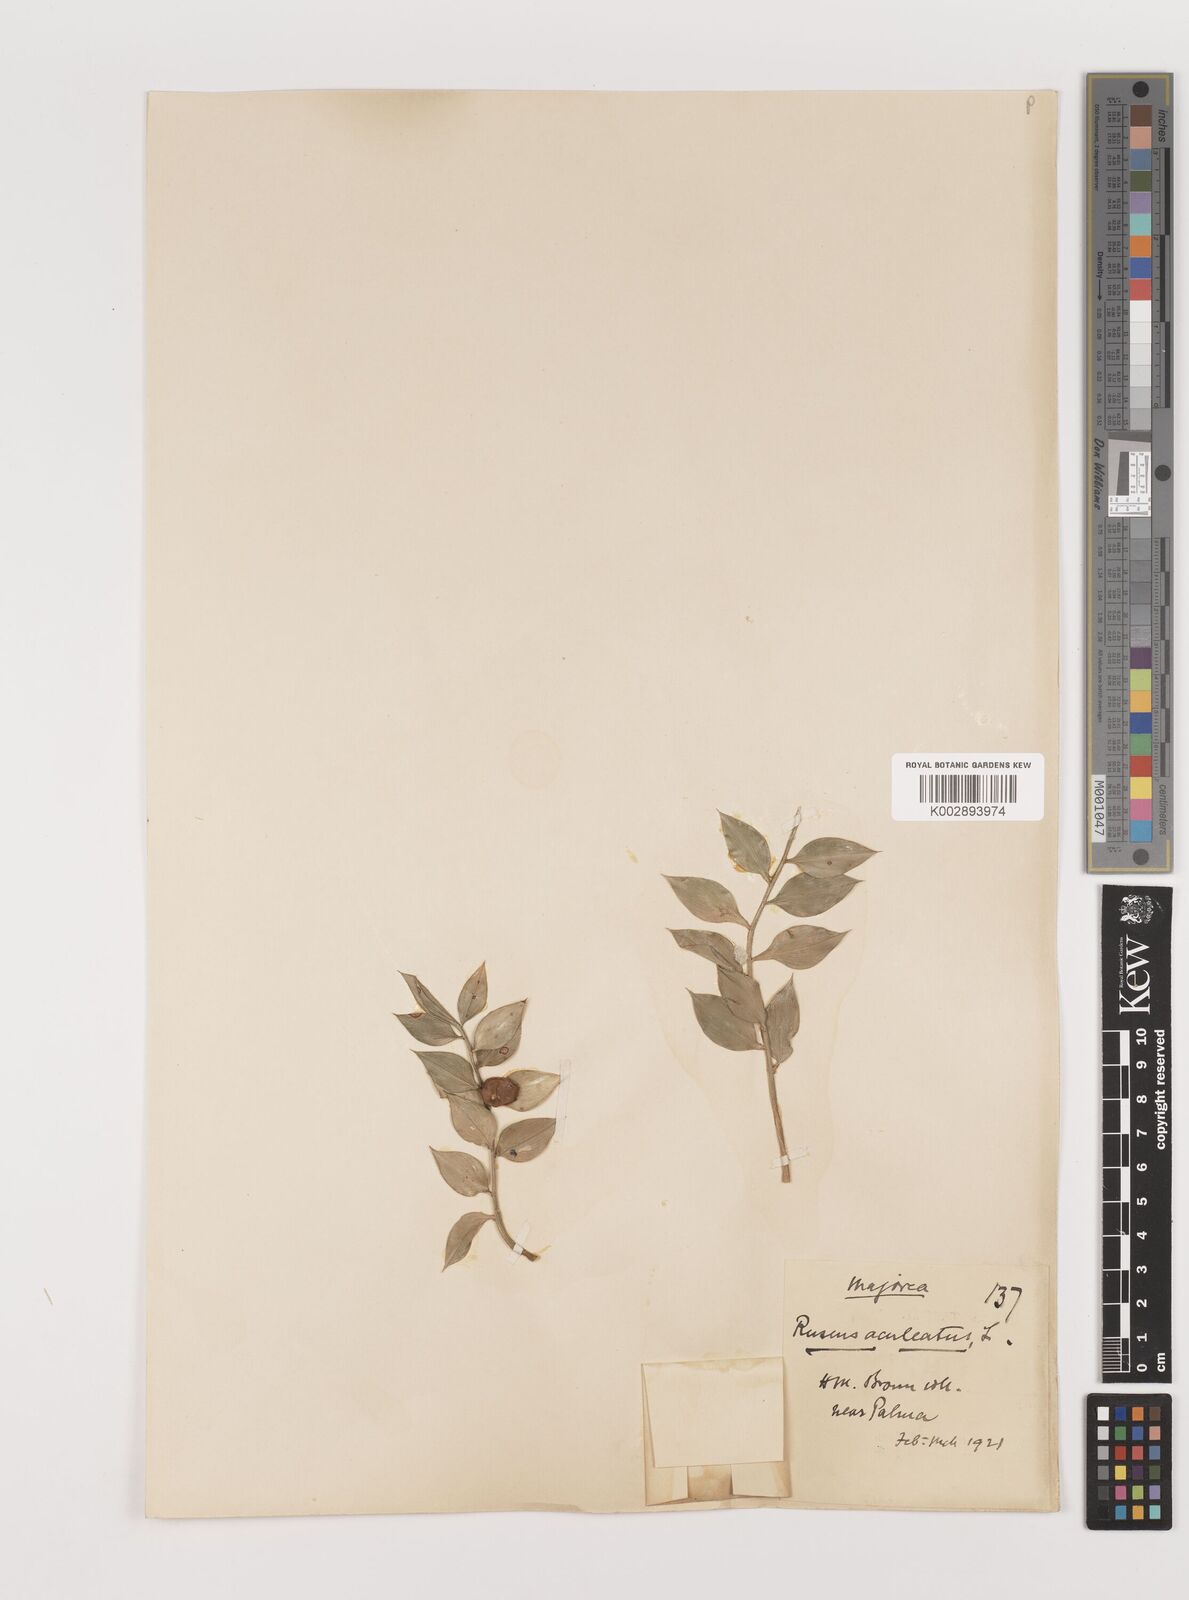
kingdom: Plantae
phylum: Tracheophyta
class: Liliopsida
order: Asparagales
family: Asparagaceae
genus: Ruscus
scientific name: Ruscus aculeatus
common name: Butcher's-broom
